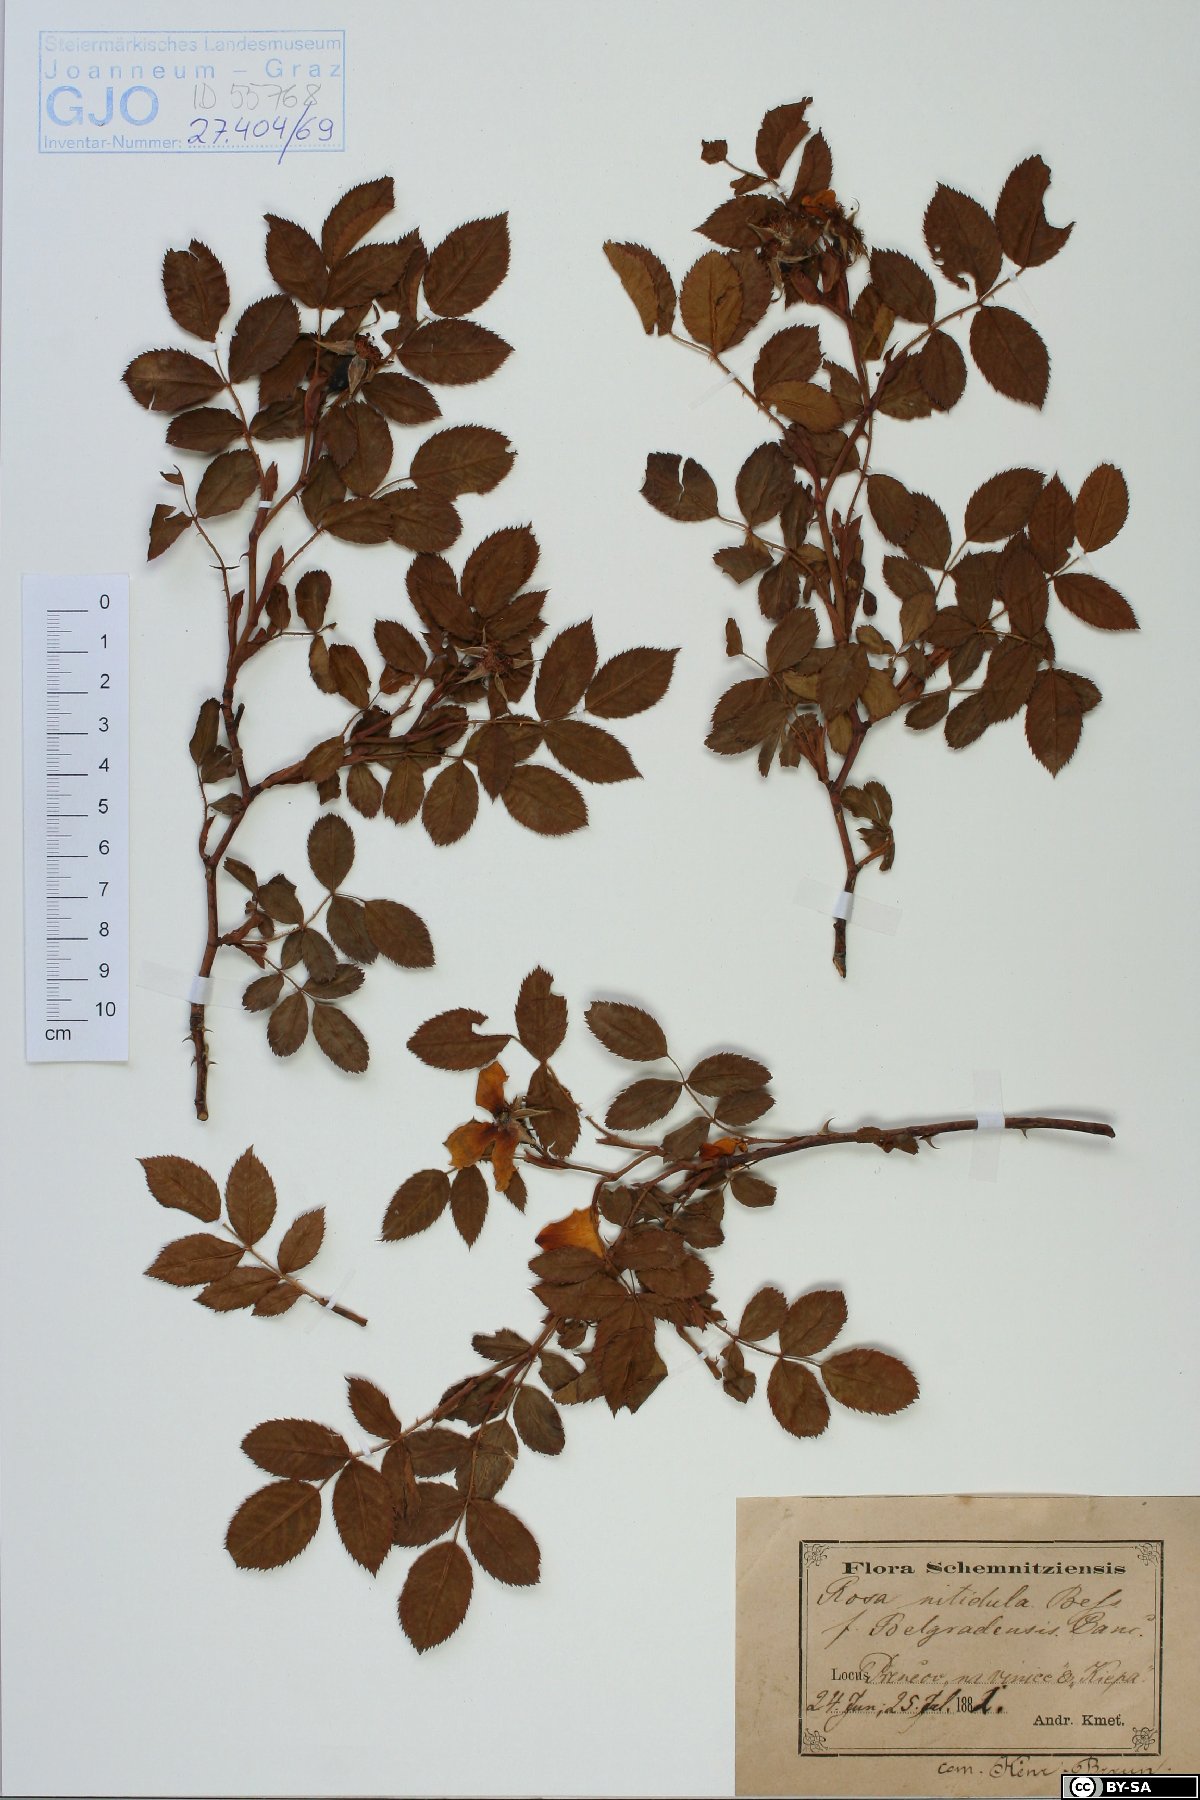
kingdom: Plantae
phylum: Tracheophyta
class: Magnoliopsida
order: Rosales
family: Rosaceae
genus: Rosa
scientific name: Rosa canina
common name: Dog rose
